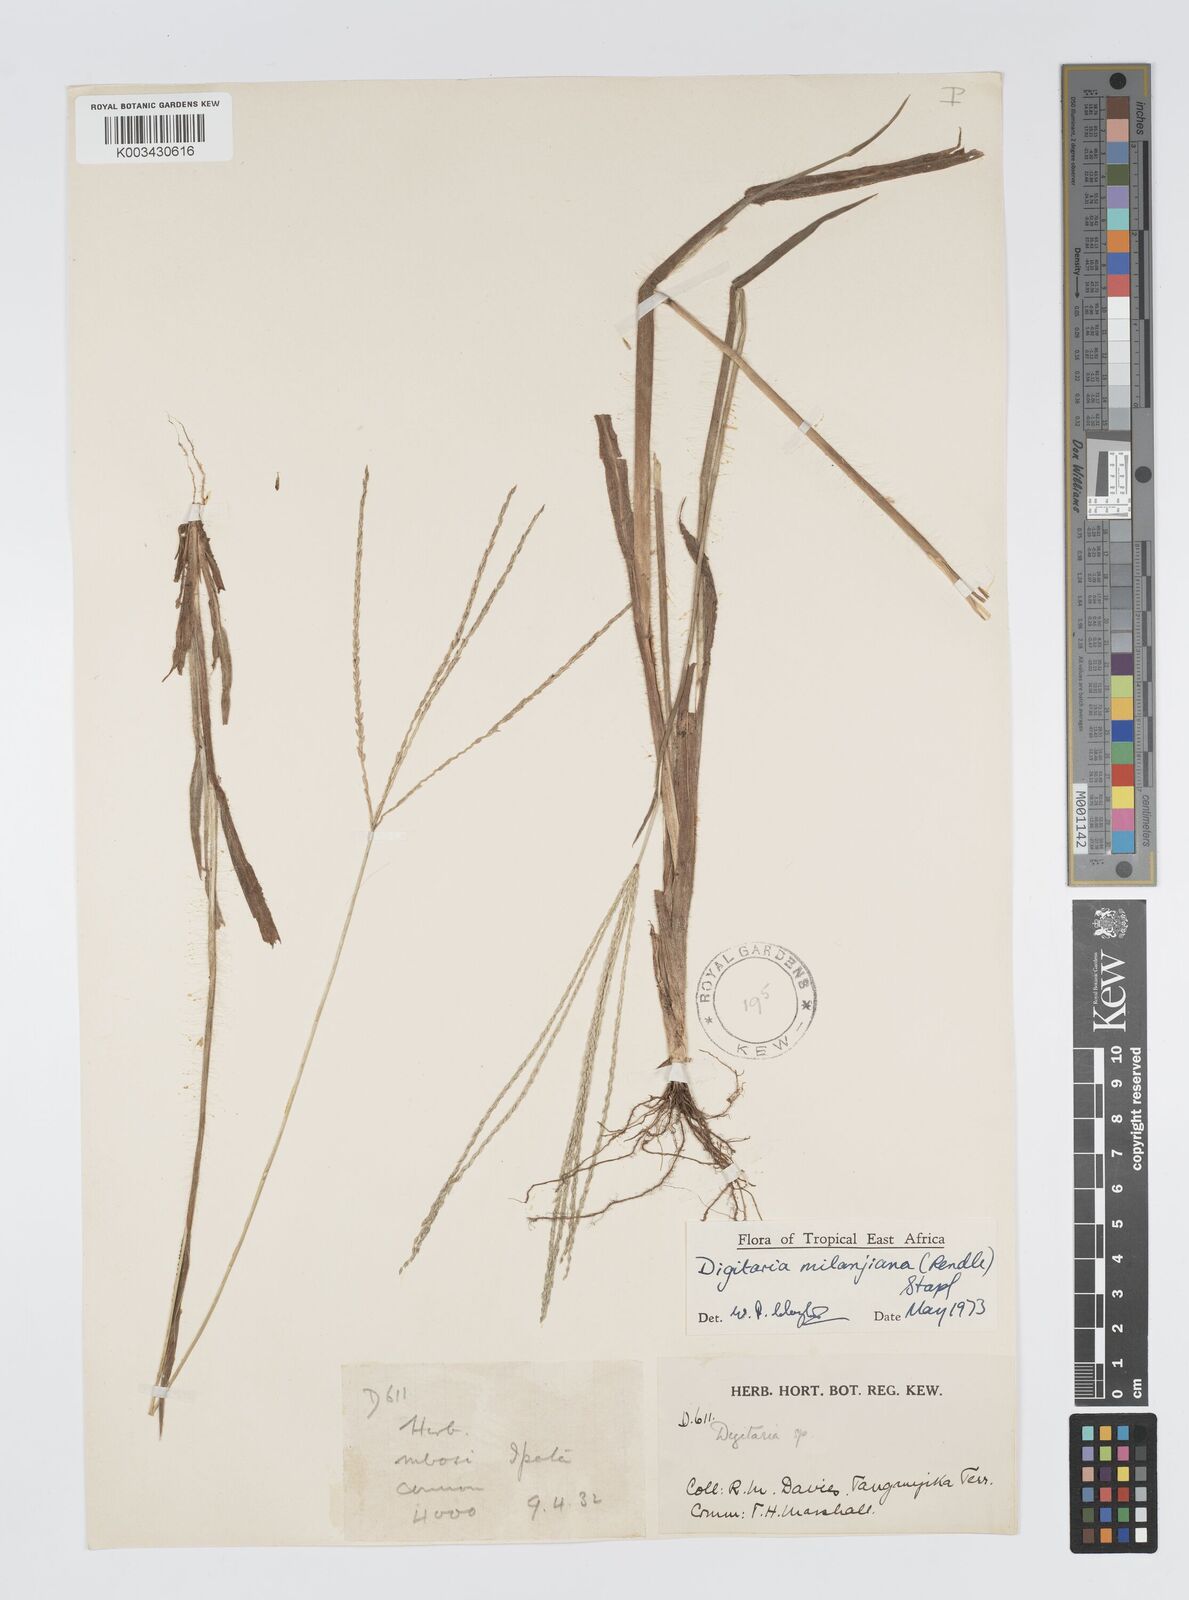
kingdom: Plantae
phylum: Tracheophyta
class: Liliopsida
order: Poales
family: Poaceae
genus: Digitaria
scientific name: Digitaria milanjiana
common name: Madagascar crabgrass
